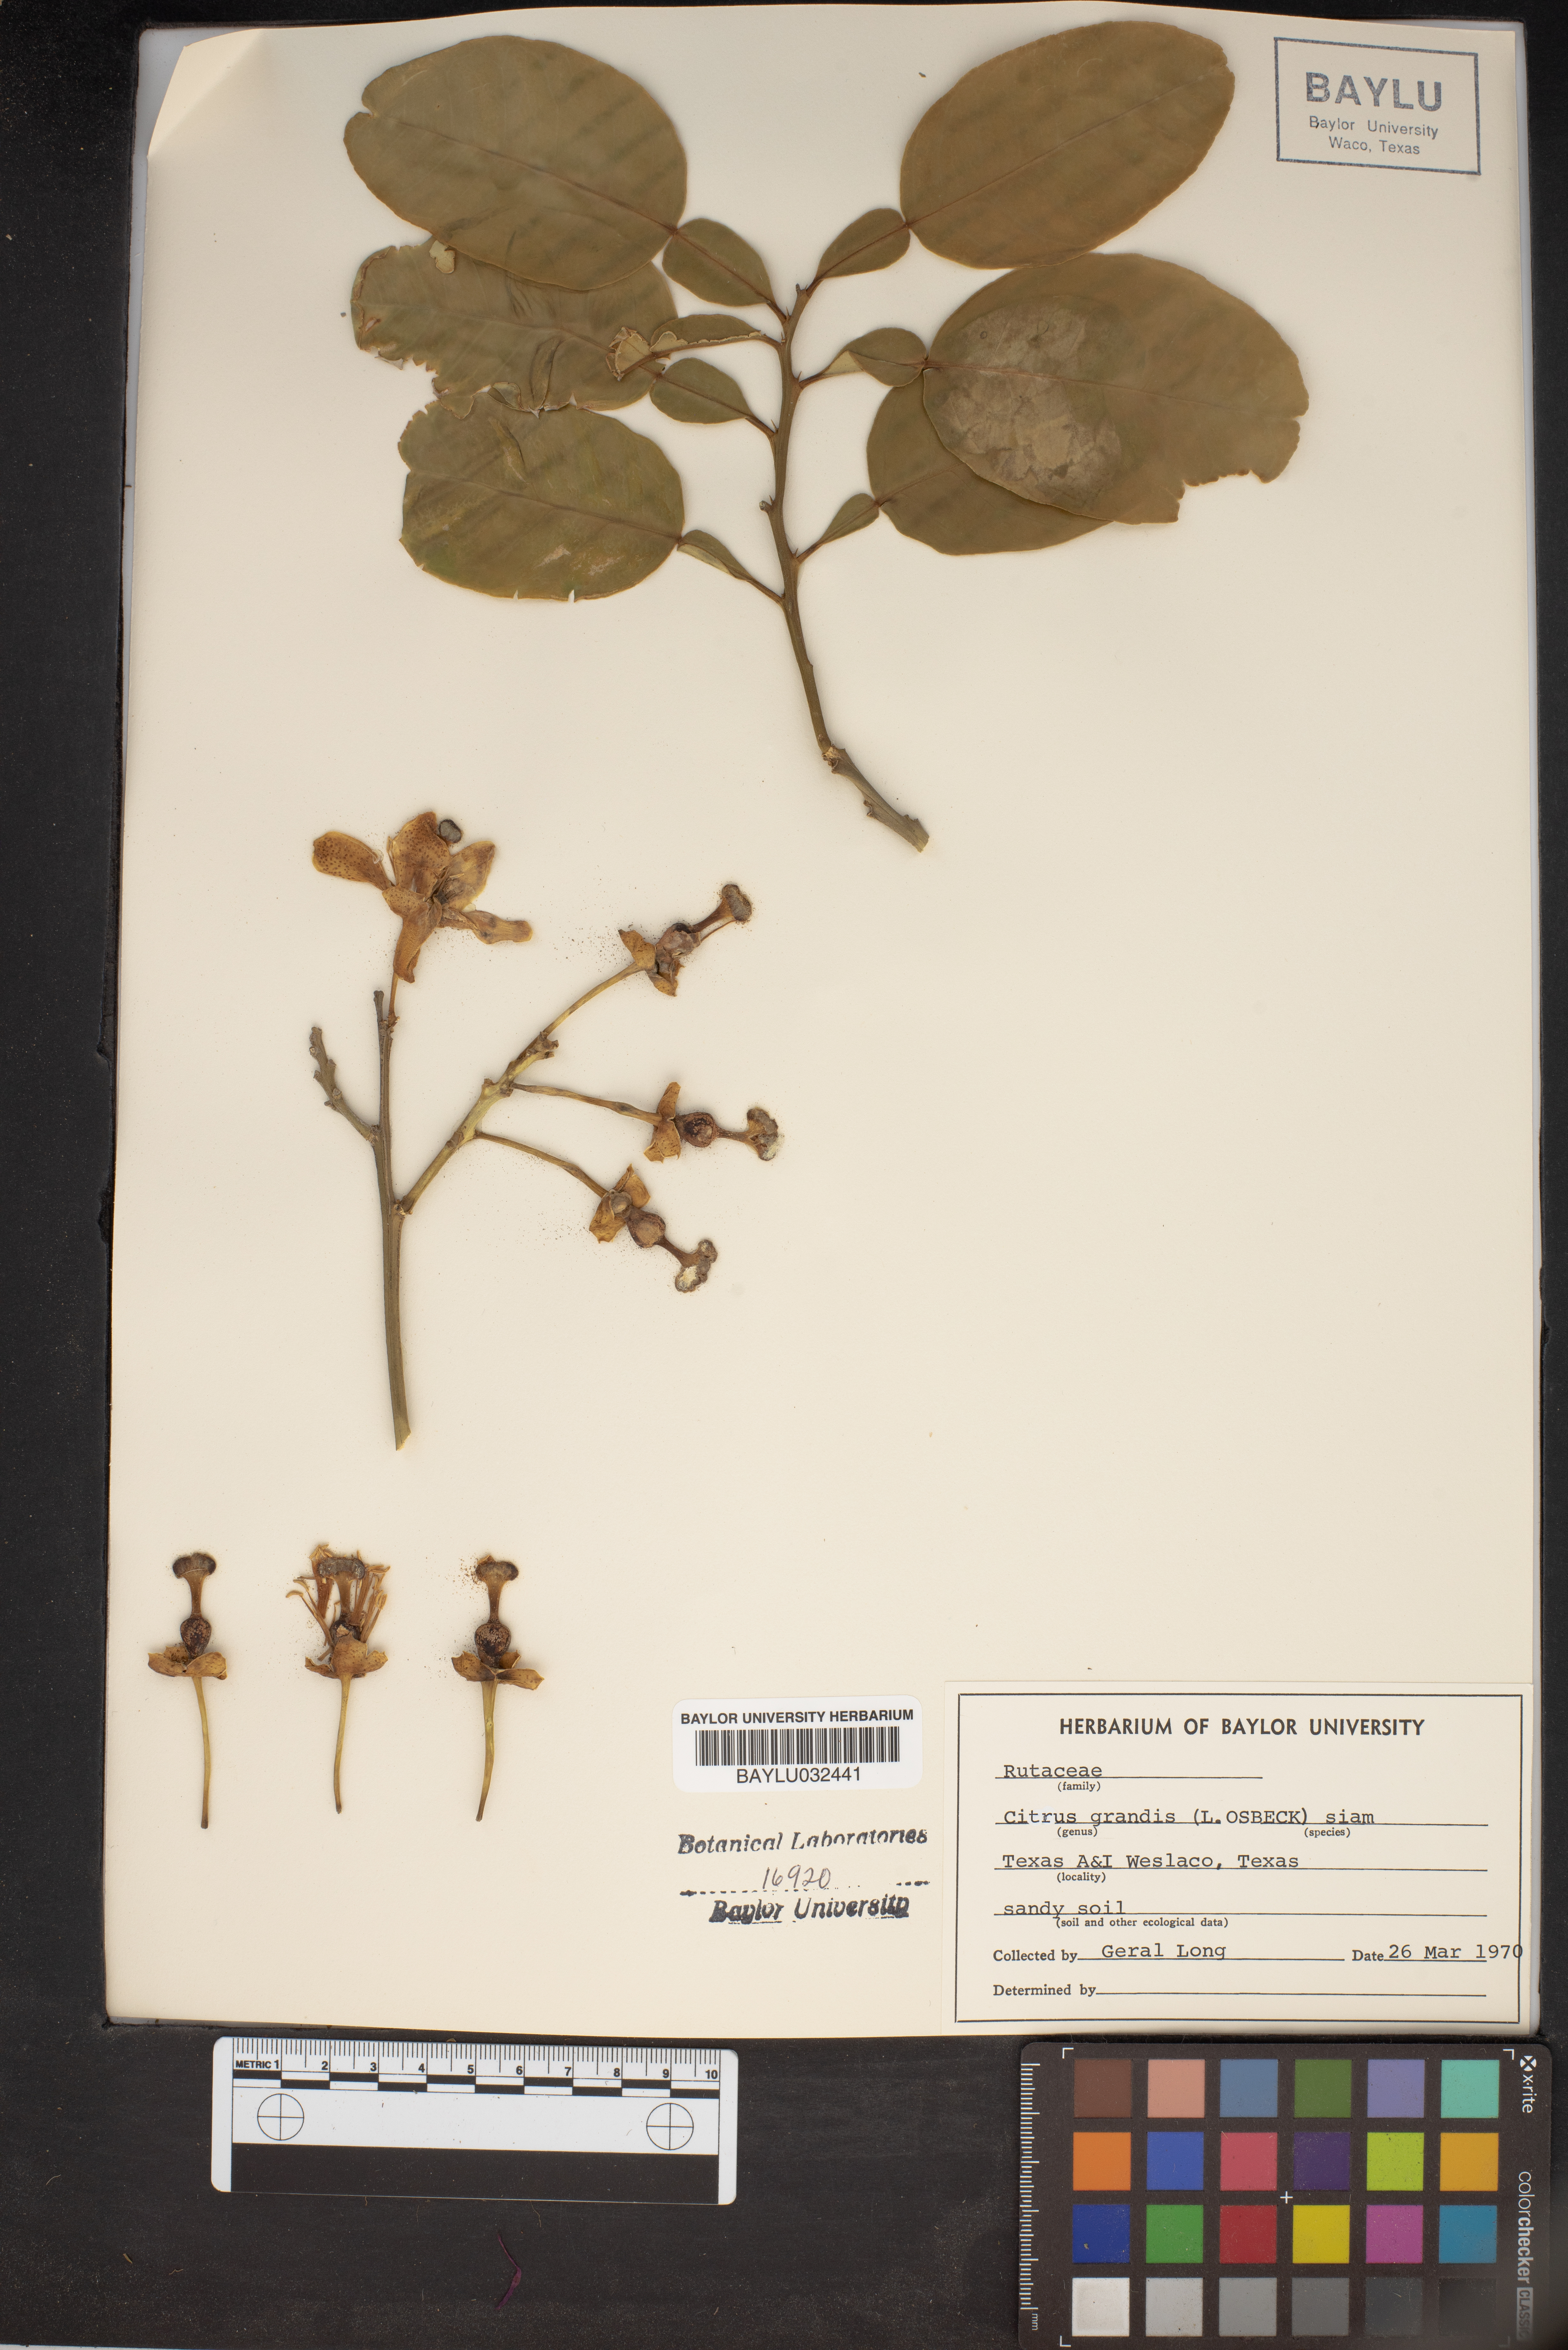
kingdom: Plantae
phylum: Tracheophyta
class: Magnoliopsida
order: Sapindales
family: Rutaceae
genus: Citrus
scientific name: Citrus maxima
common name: Pomelo
